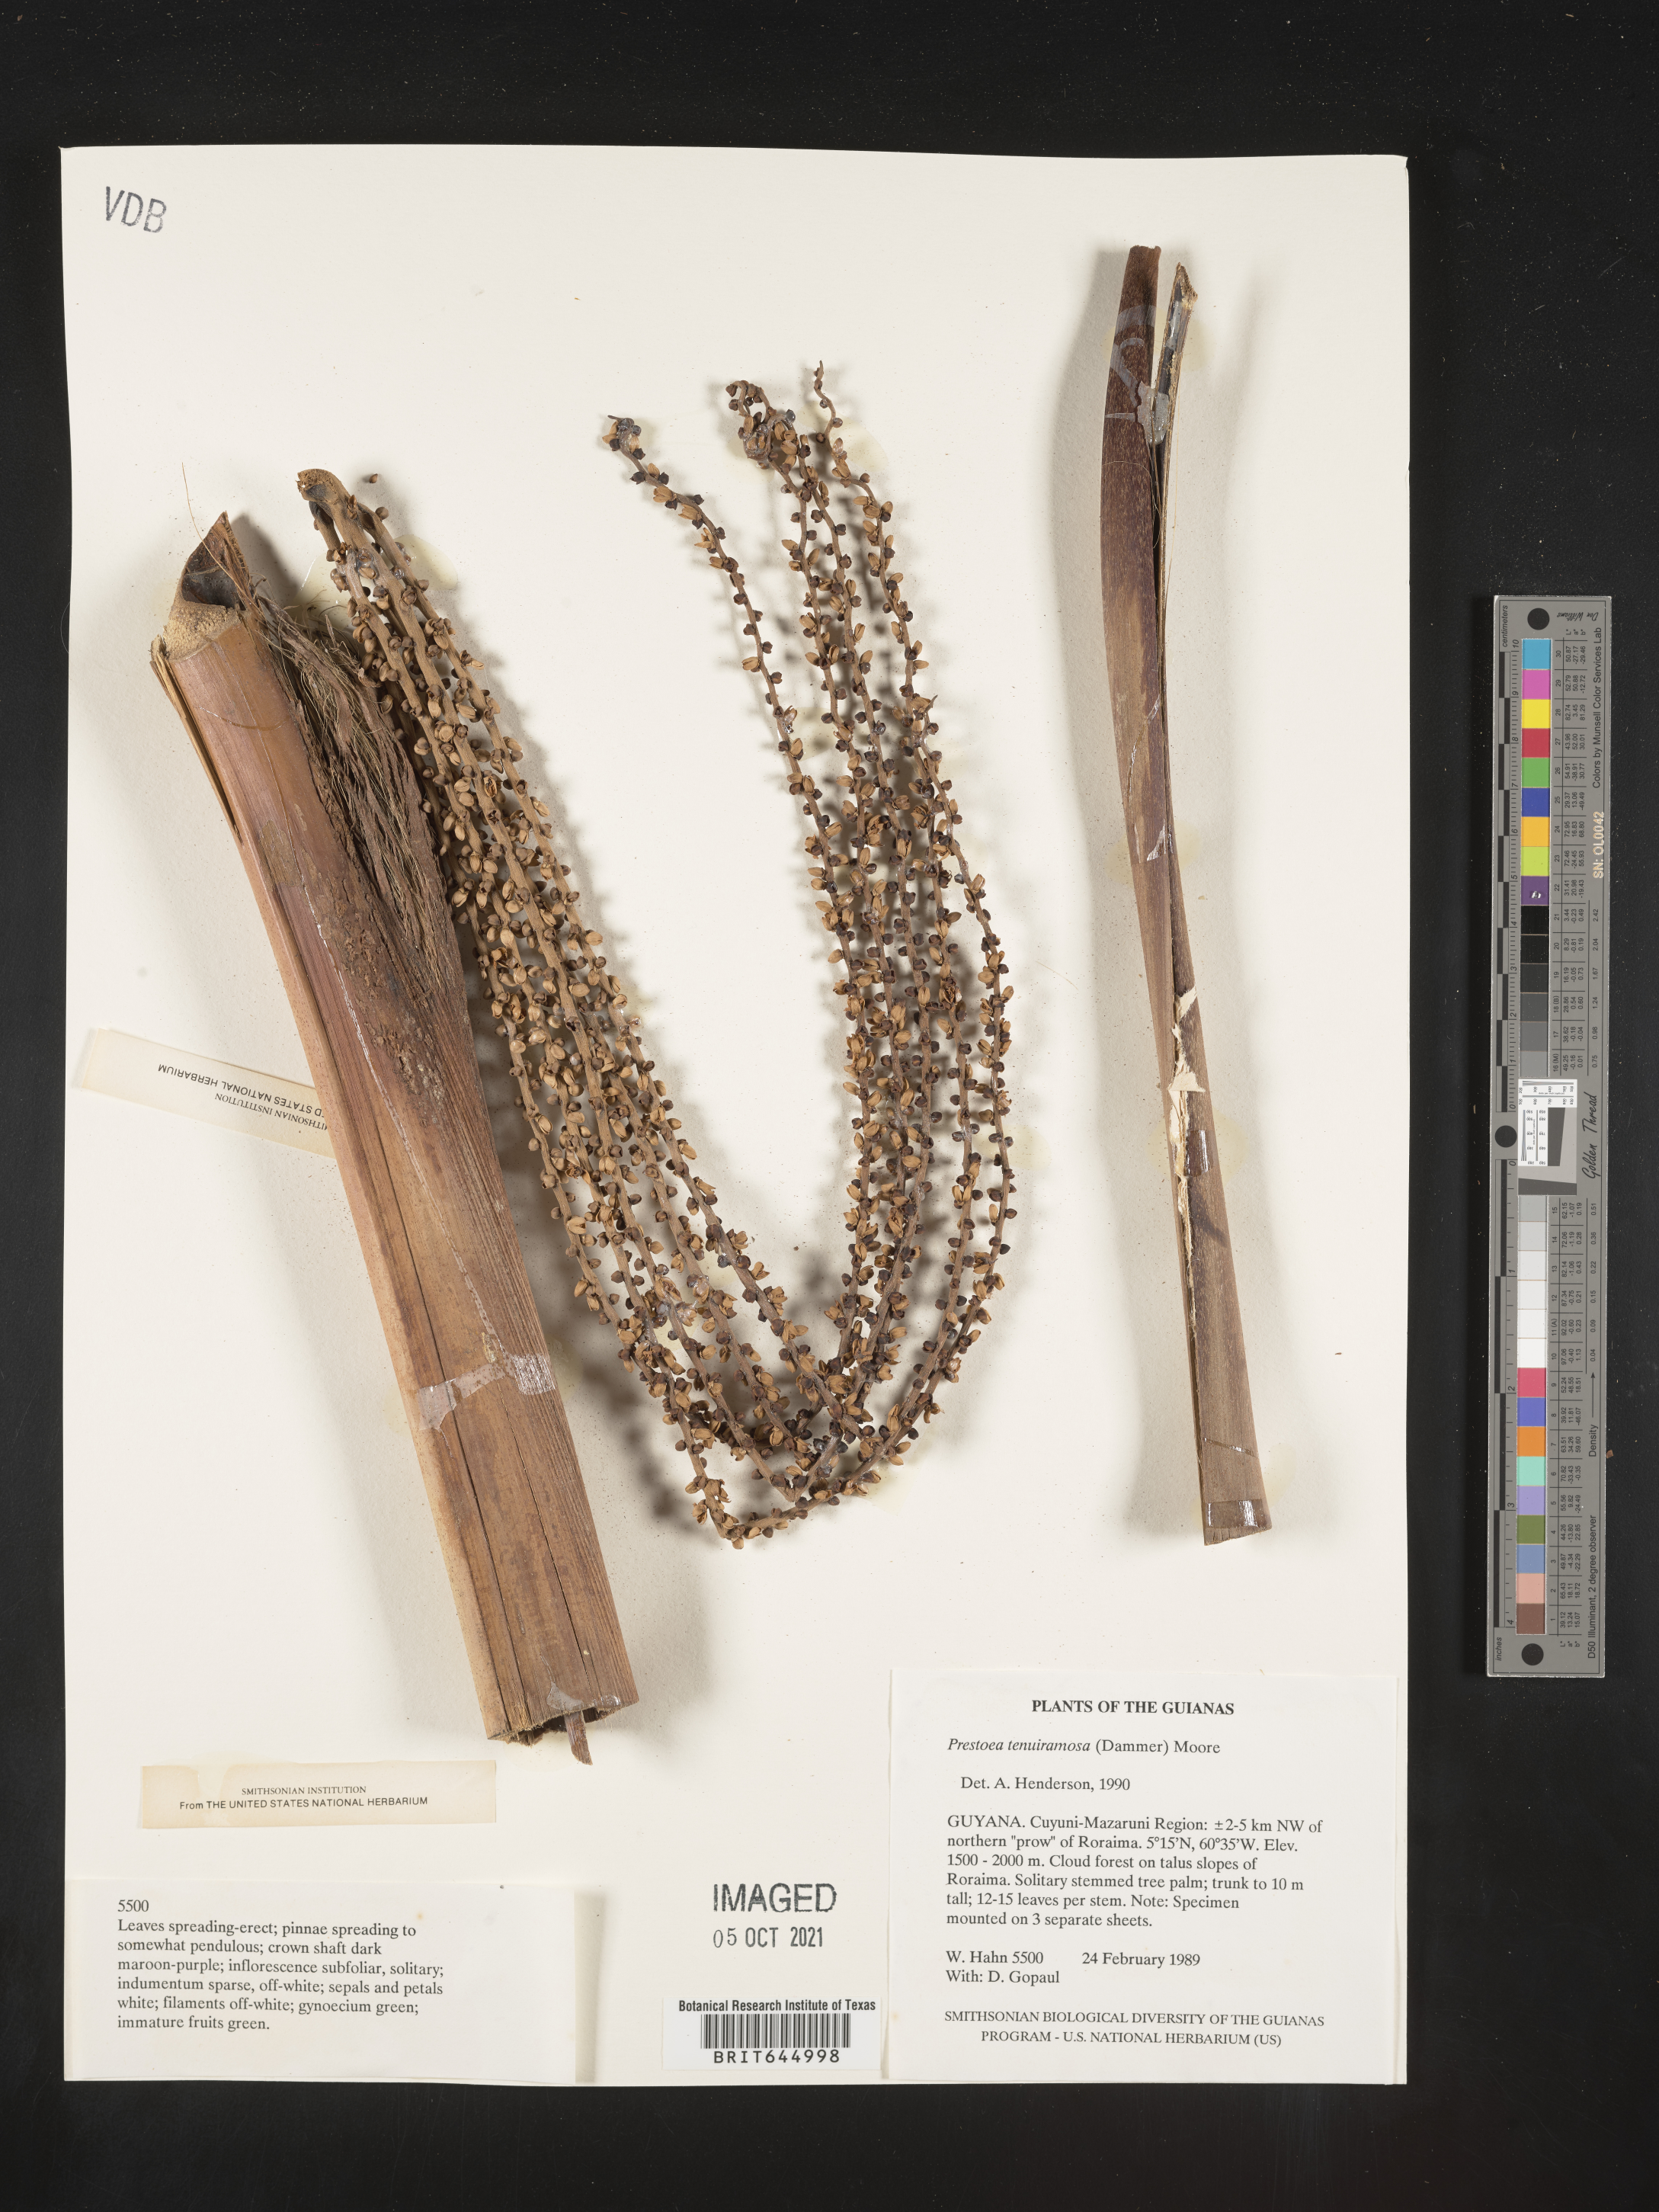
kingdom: Plantae
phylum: Tracheophyta
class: Liliopsida
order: Arecales
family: Arecaceae
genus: Prestoea
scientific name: Prestoea tenuiramosa
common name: Guyana manicole palm
